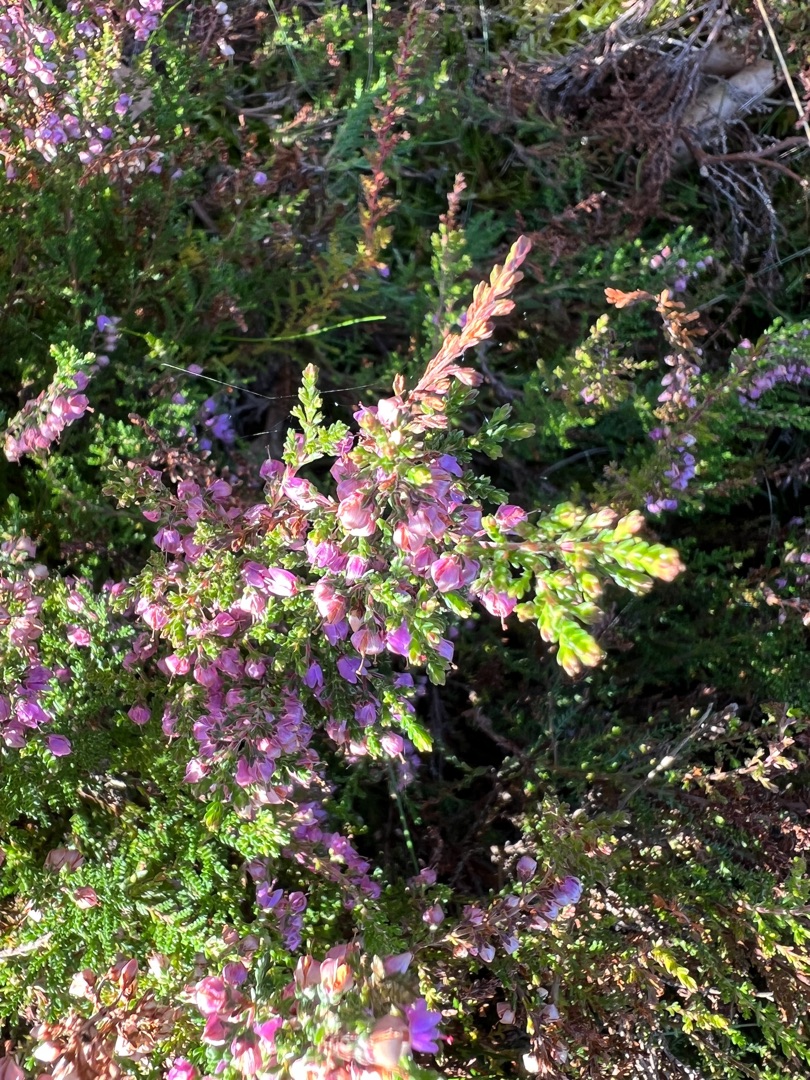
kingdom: Plantae
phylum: Tracheophyta
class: Magnoliopsida
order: Ericales
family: Ericaceae
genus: Calluna
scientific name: Calluna vulgaris
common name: Hedelyng
